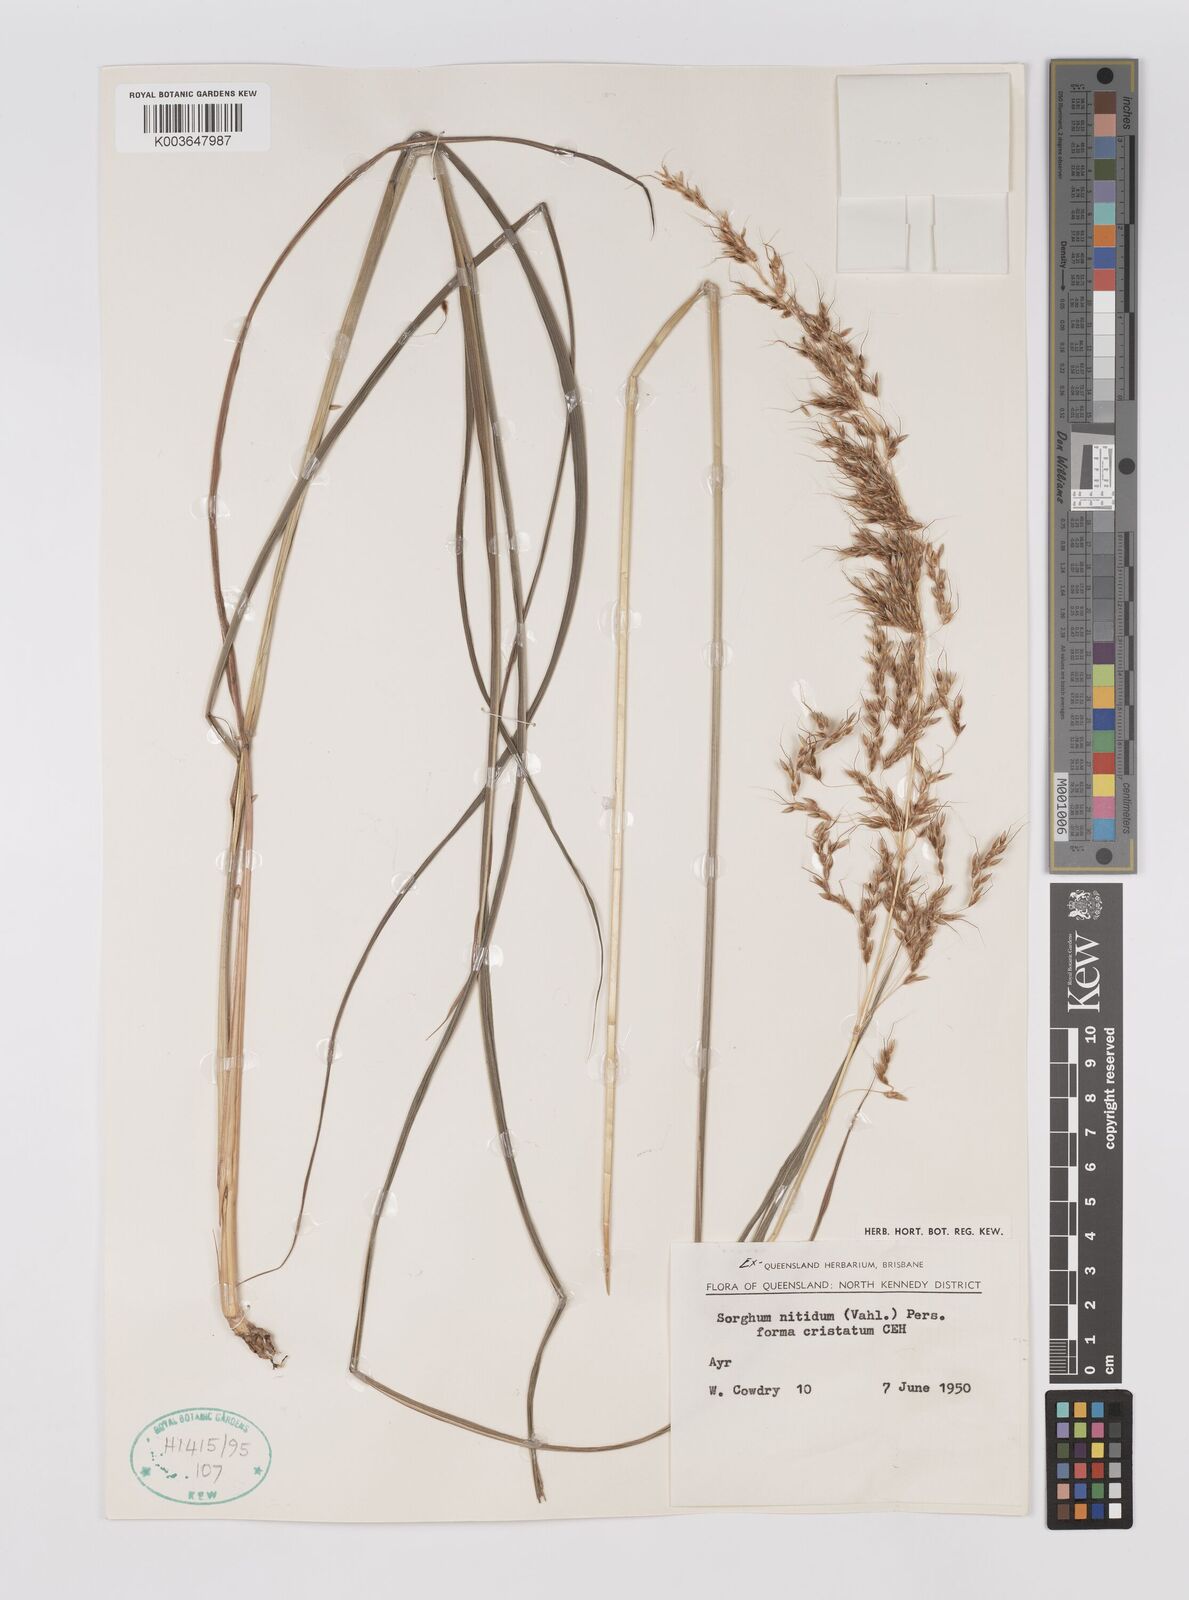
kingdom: Plantae
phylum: Tracheophyta
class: Liliopsida
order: Poales
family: Poaceae
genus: Sorghum
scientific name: Sorghum nitidum
